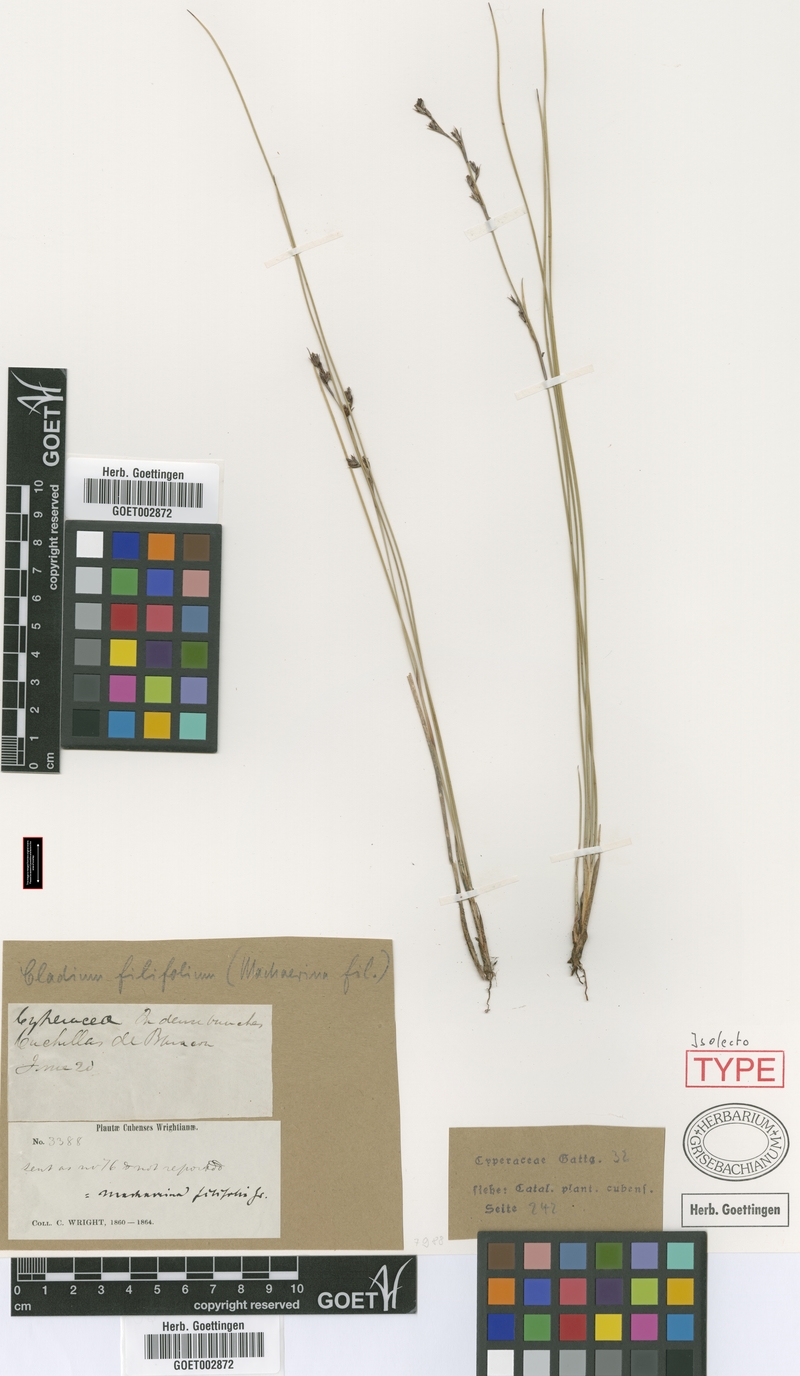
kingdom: Plantae
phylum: Tracheophyta
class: Liliopsida
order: Poales
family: Cyperaceae
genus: Machaerina
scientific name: Machaerina filifolia
